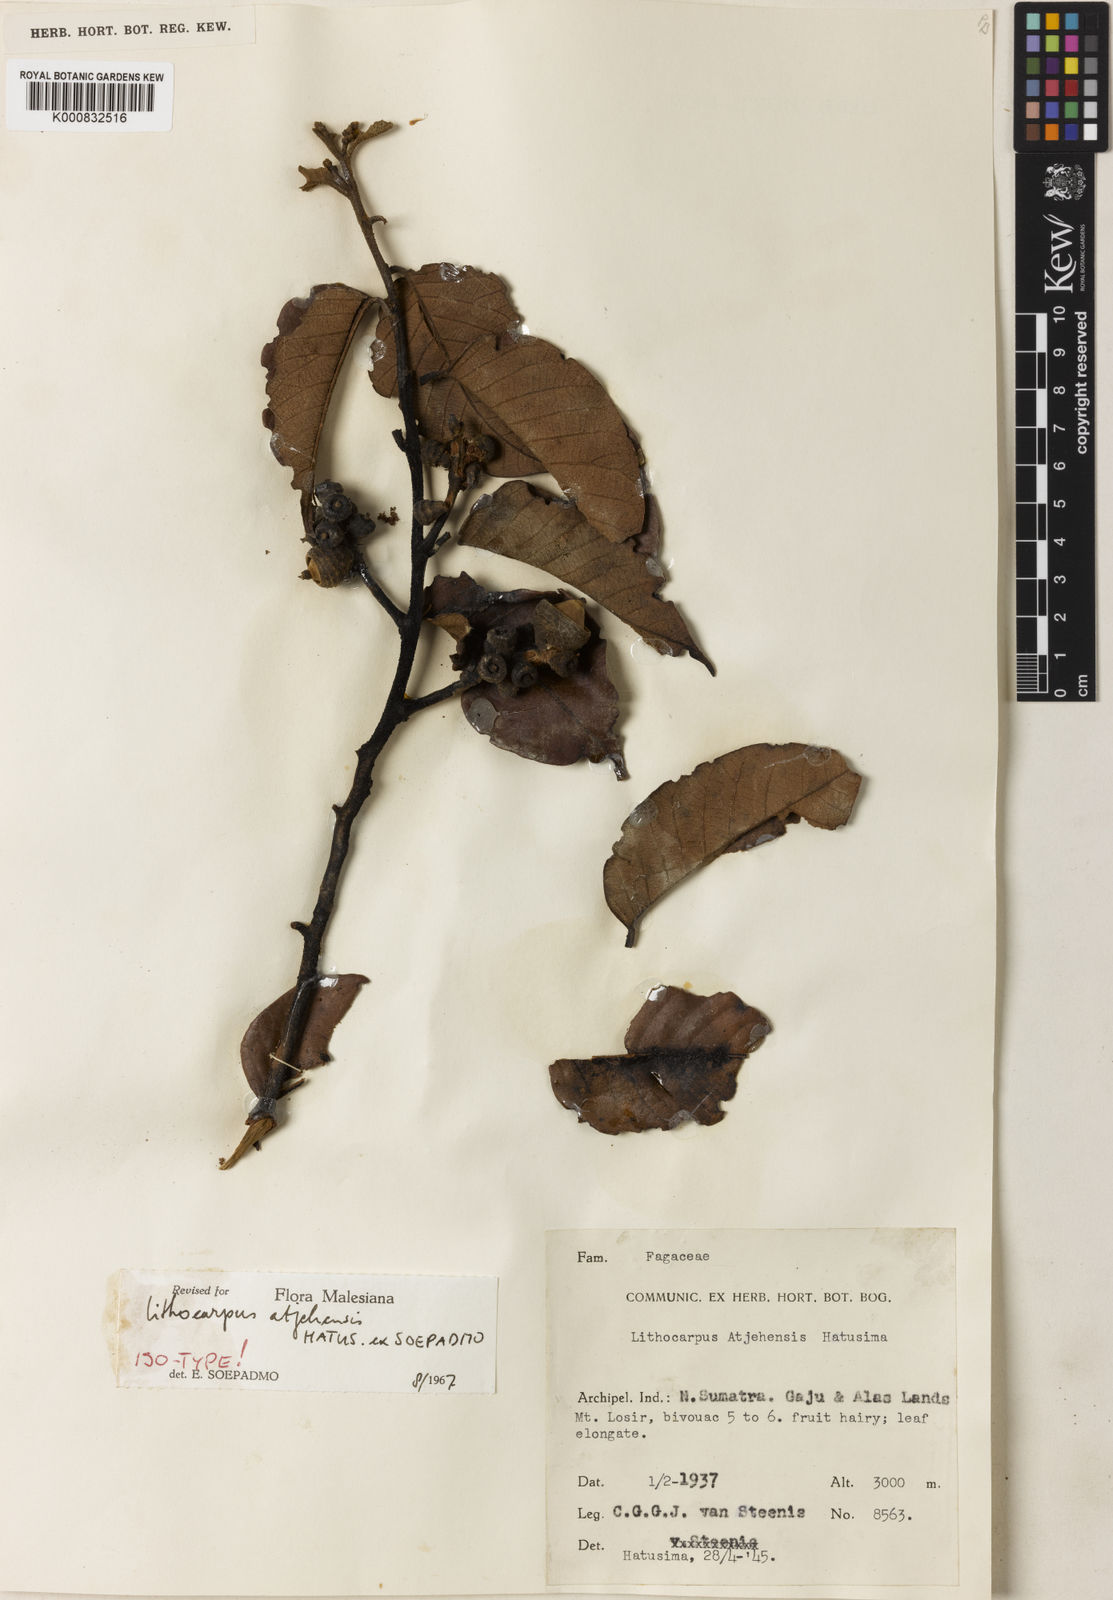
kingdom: Plantae
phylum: Tracheophyta
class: Magnoliopsida
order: Fagales
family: Fagaceae
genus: Lithocarpus
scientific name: Lithocarpus atjehensis
